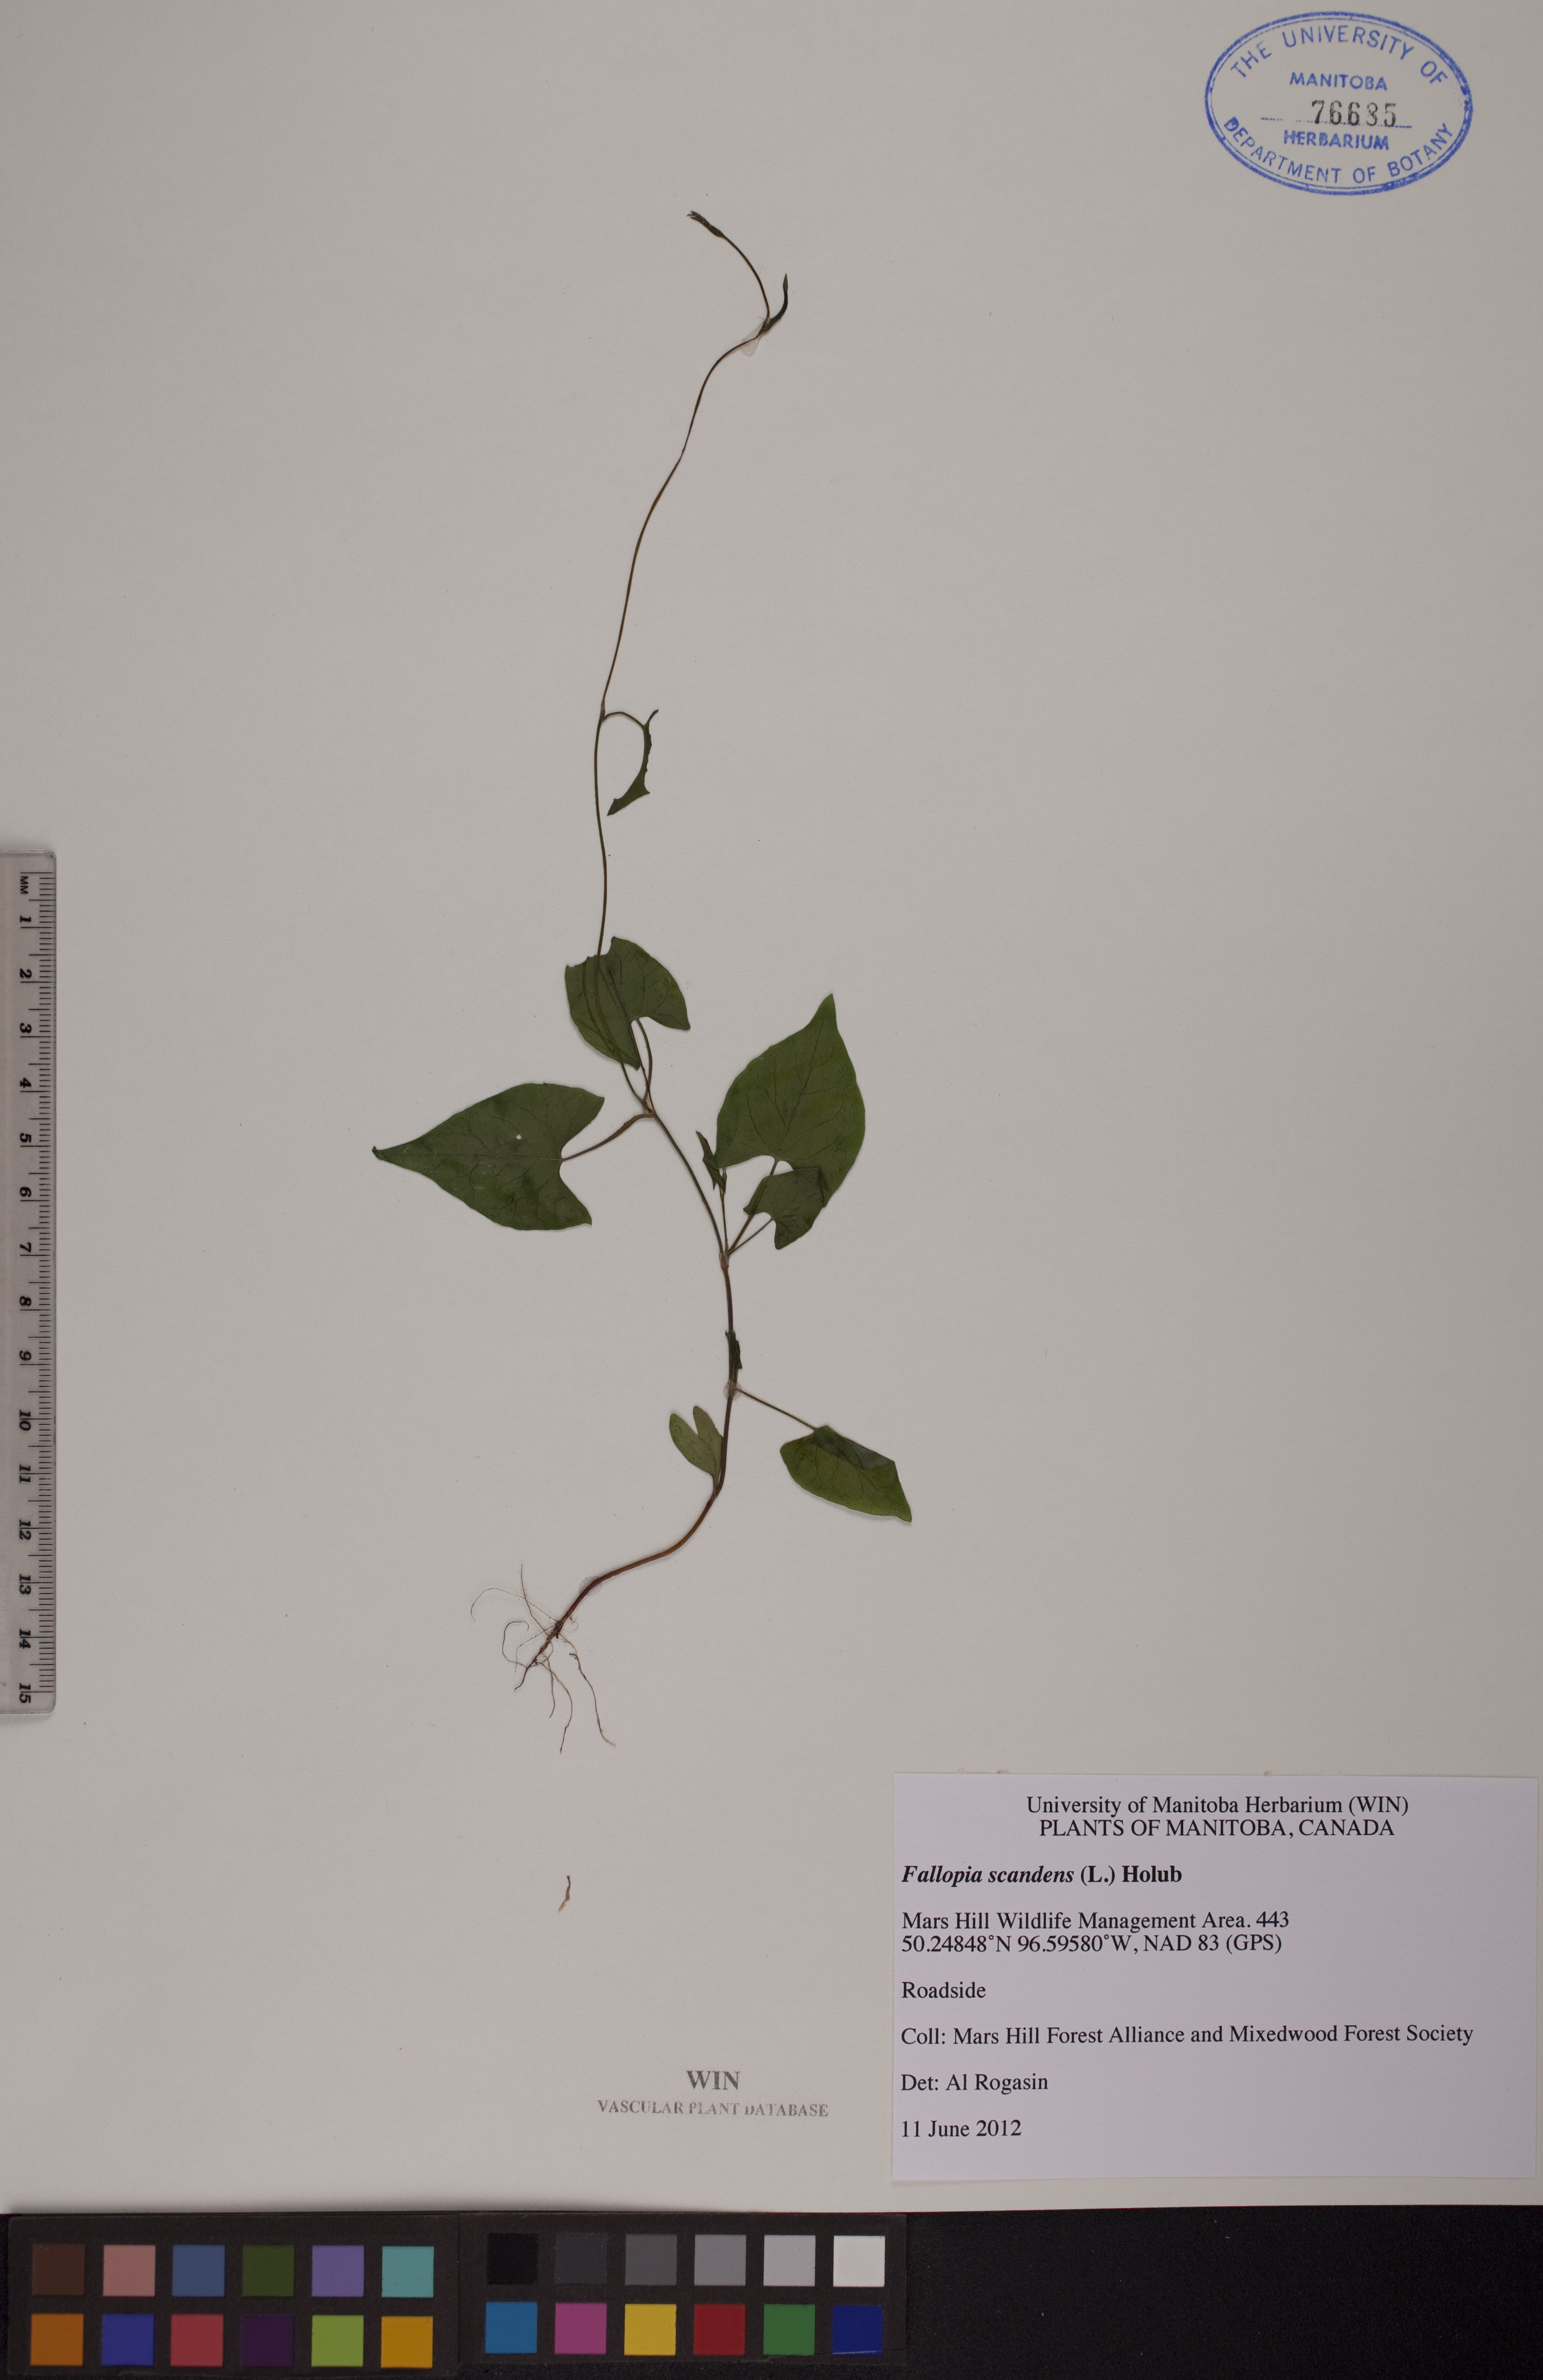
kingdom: Plantae
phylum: Tracheophyta
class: Magnoliopsida
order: Caryophyllales
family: Polygonaceae
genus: Fallopia
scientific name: Fallopia scandens
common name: Climbing false buckwheat
